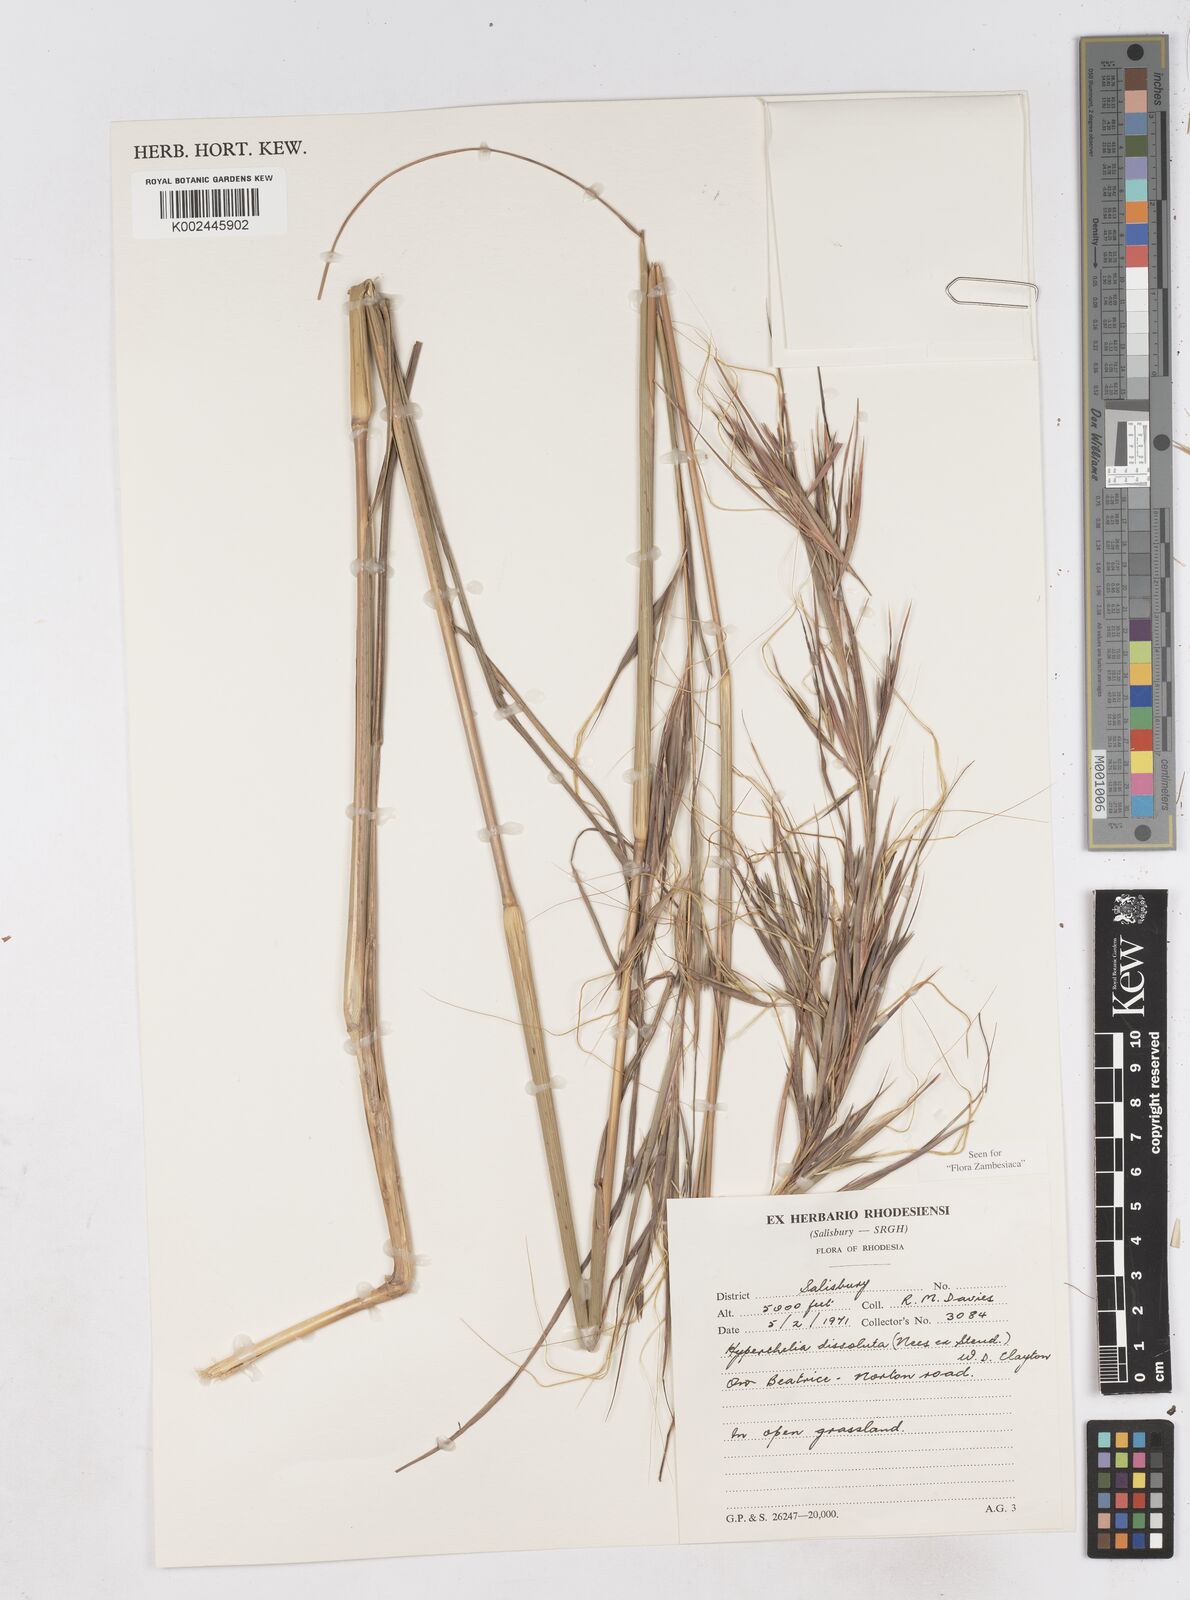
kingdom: Plantae
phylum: Tracheophyta
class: Liliopsida
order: Poales
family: Poaceae
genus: Hyperthelia
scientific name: Hyperthelia dissoluta
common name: Yellow thatching grass
